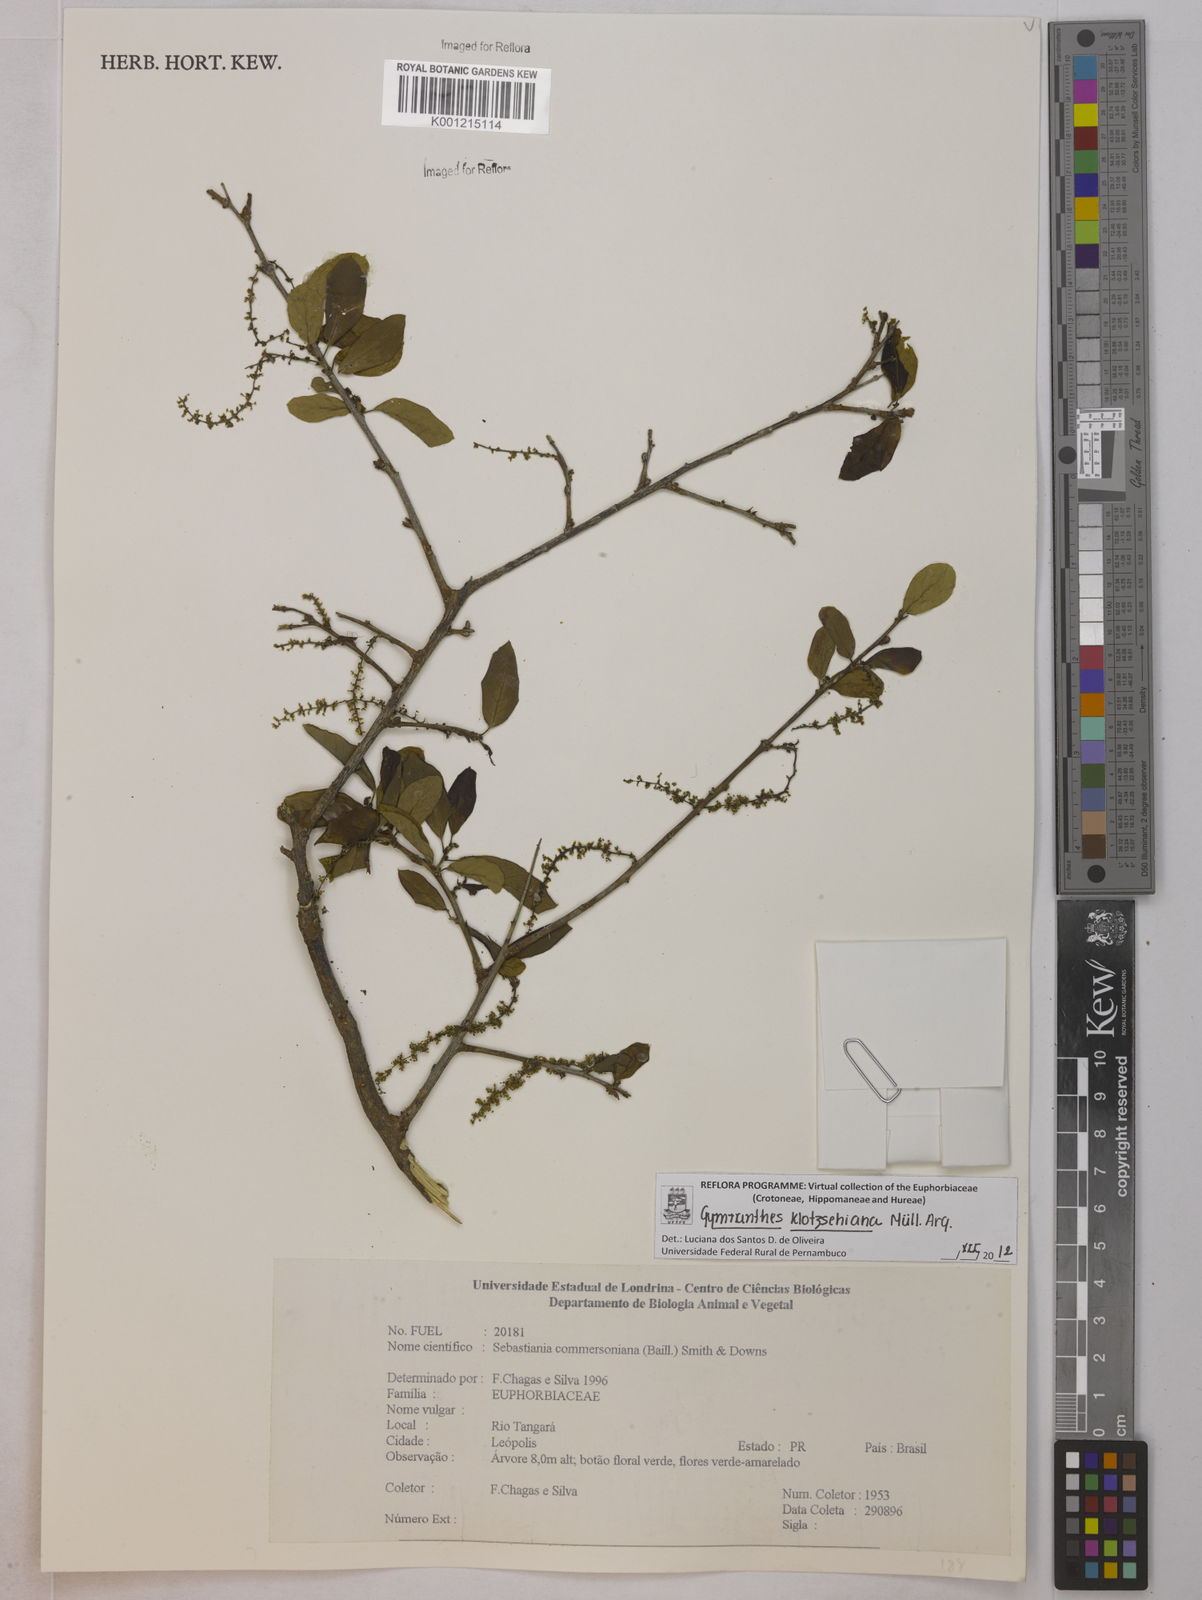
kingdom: Plantae
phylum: Tracheophyta
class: Magnoliopsida
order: Malpighiales
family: Euphorbiaceae
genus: Gymnanthes
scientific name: Gymnanthes
